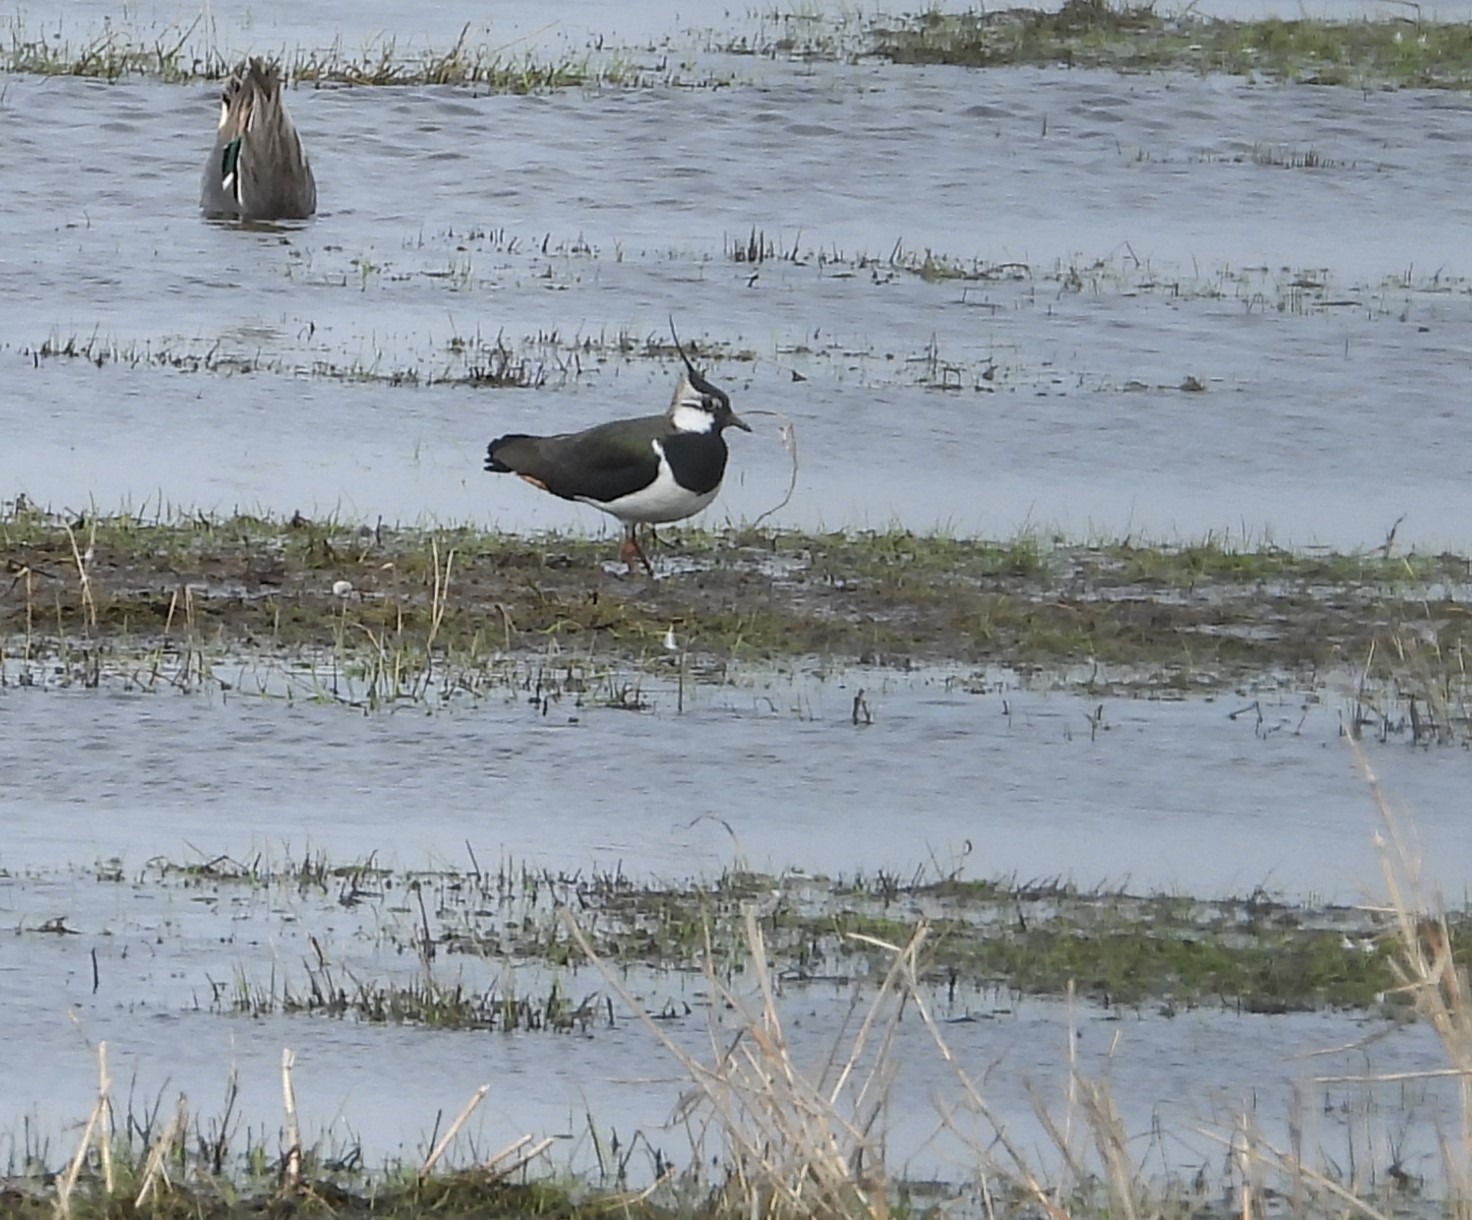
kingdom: Animalia
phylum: Chordata
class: Aves
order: Charadriiformes
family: Charadriidae
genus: Vanellus
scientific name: Vanellus vanellus
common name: Vibe
